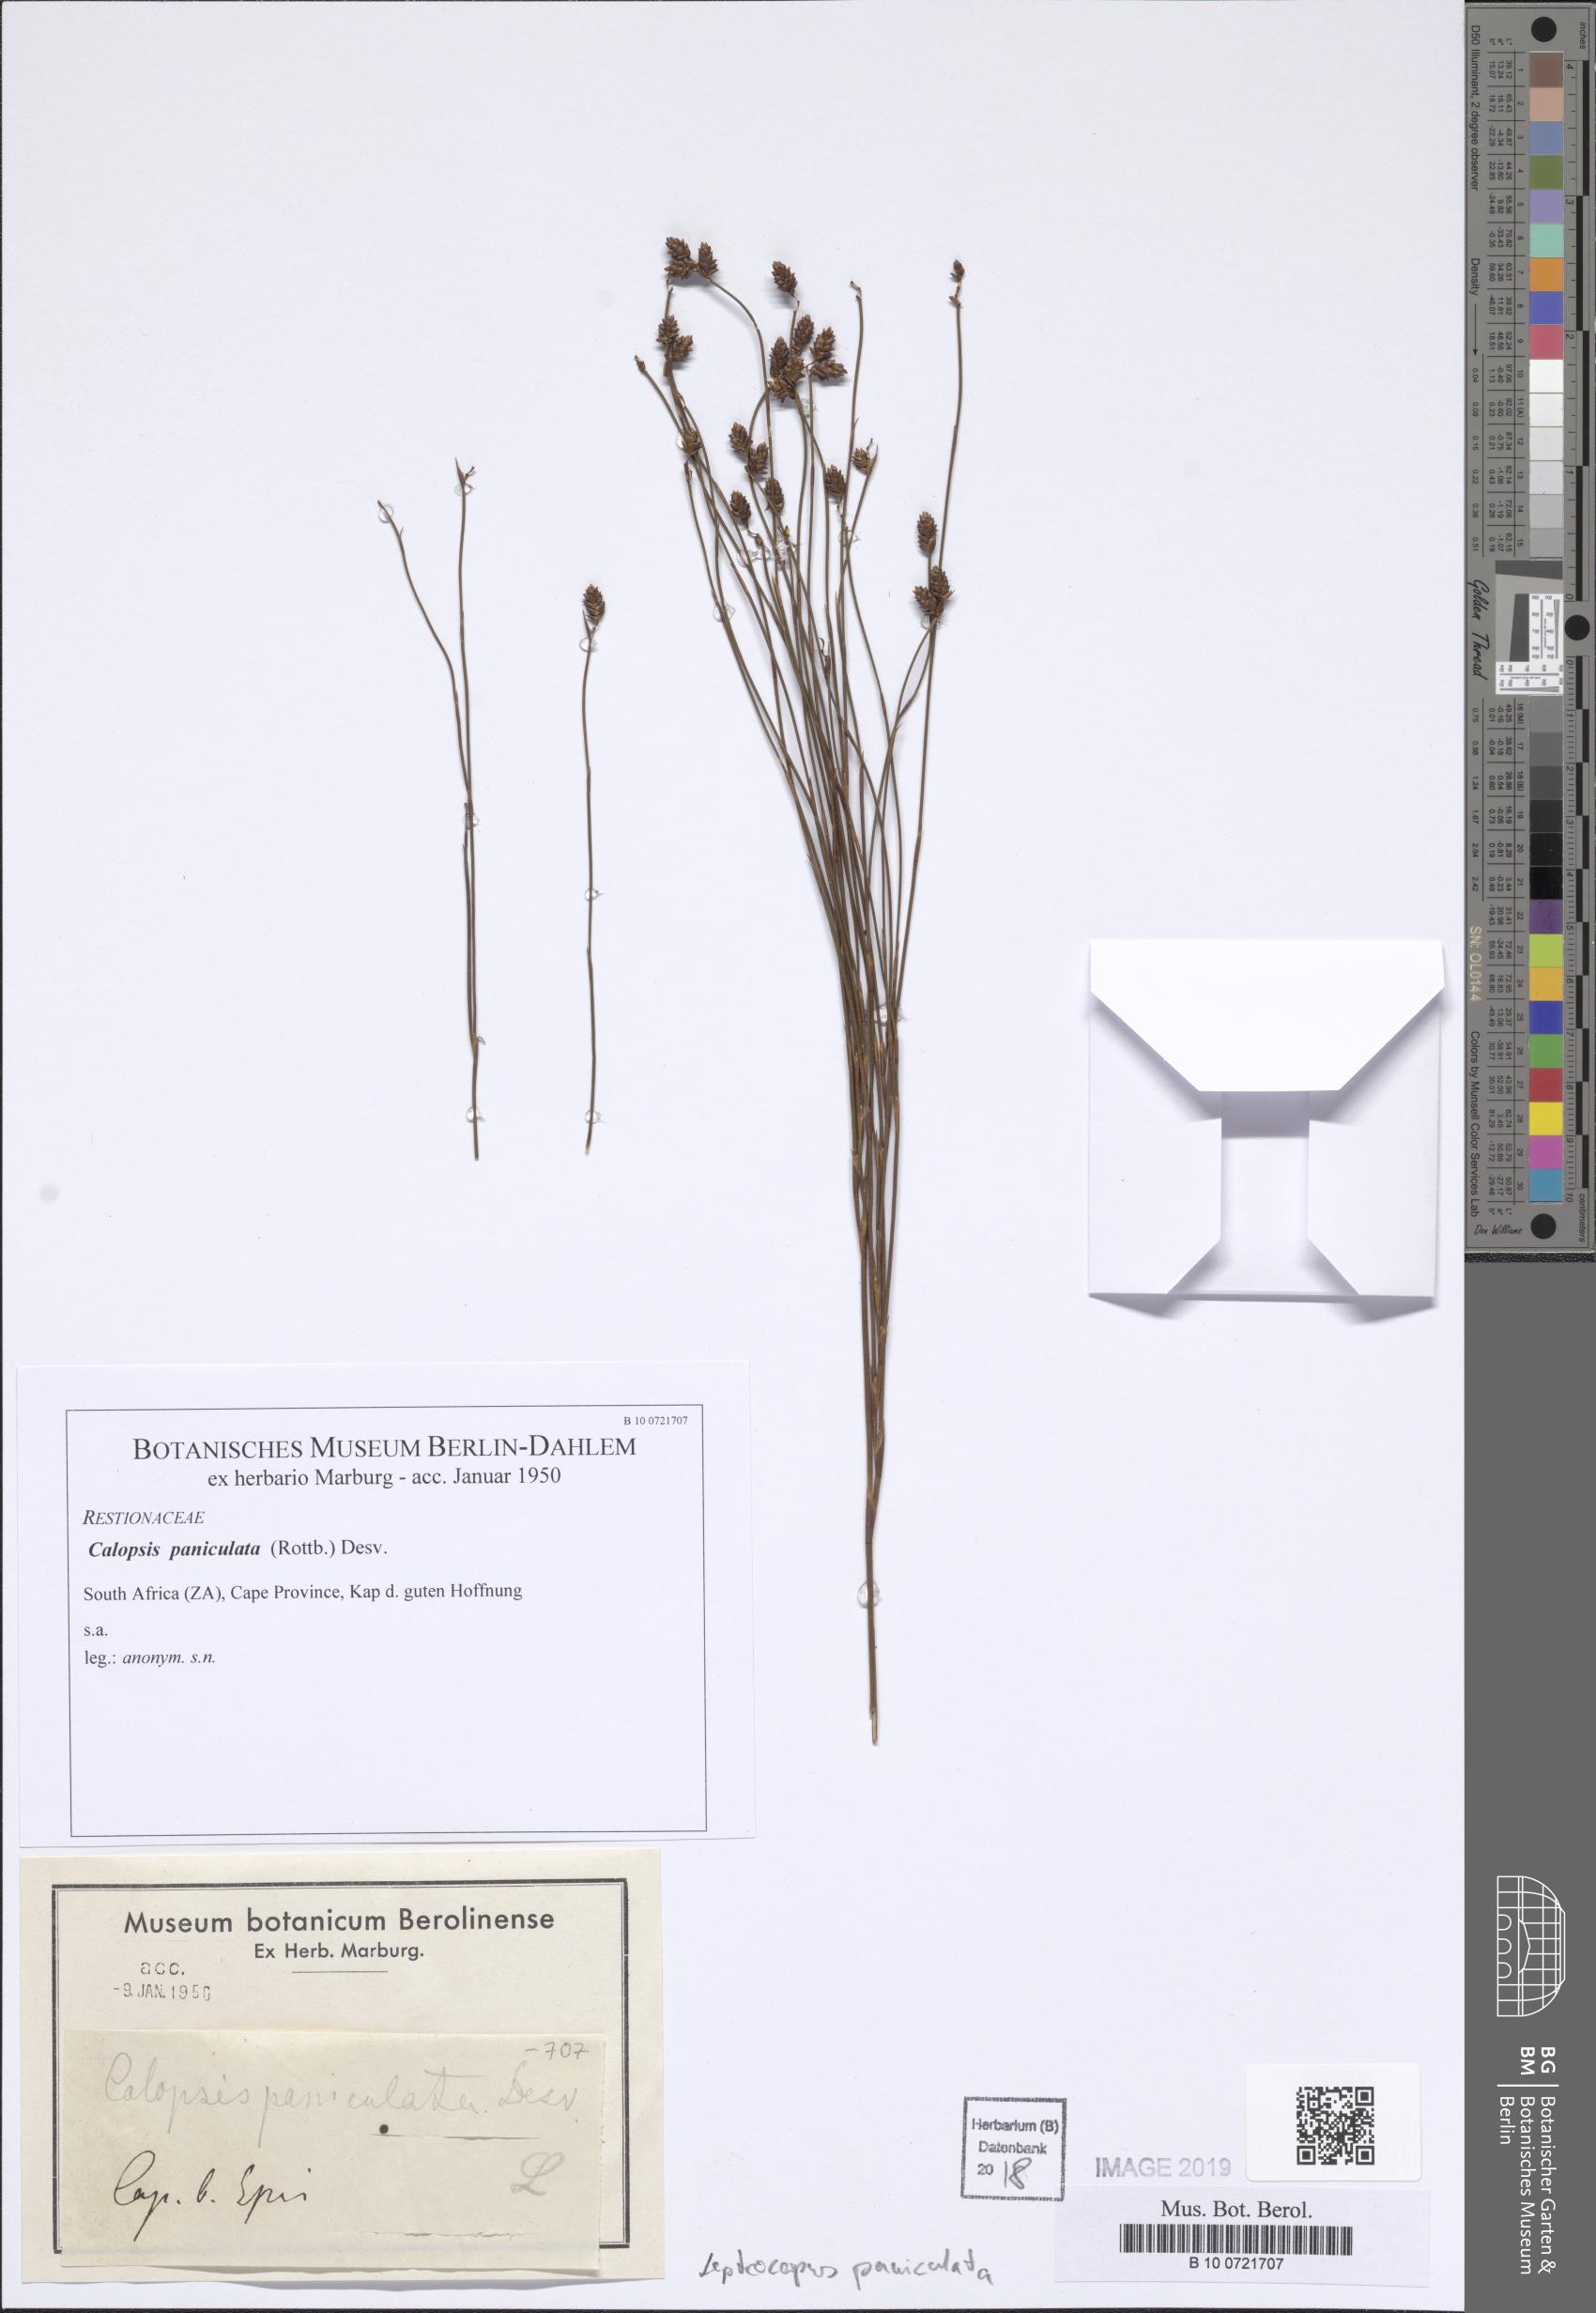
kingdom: Plantae
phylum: Tracheophyta
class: Liliopsida
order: Poales
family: Restionaceae
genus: Restio
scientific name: Restio paniculatus
